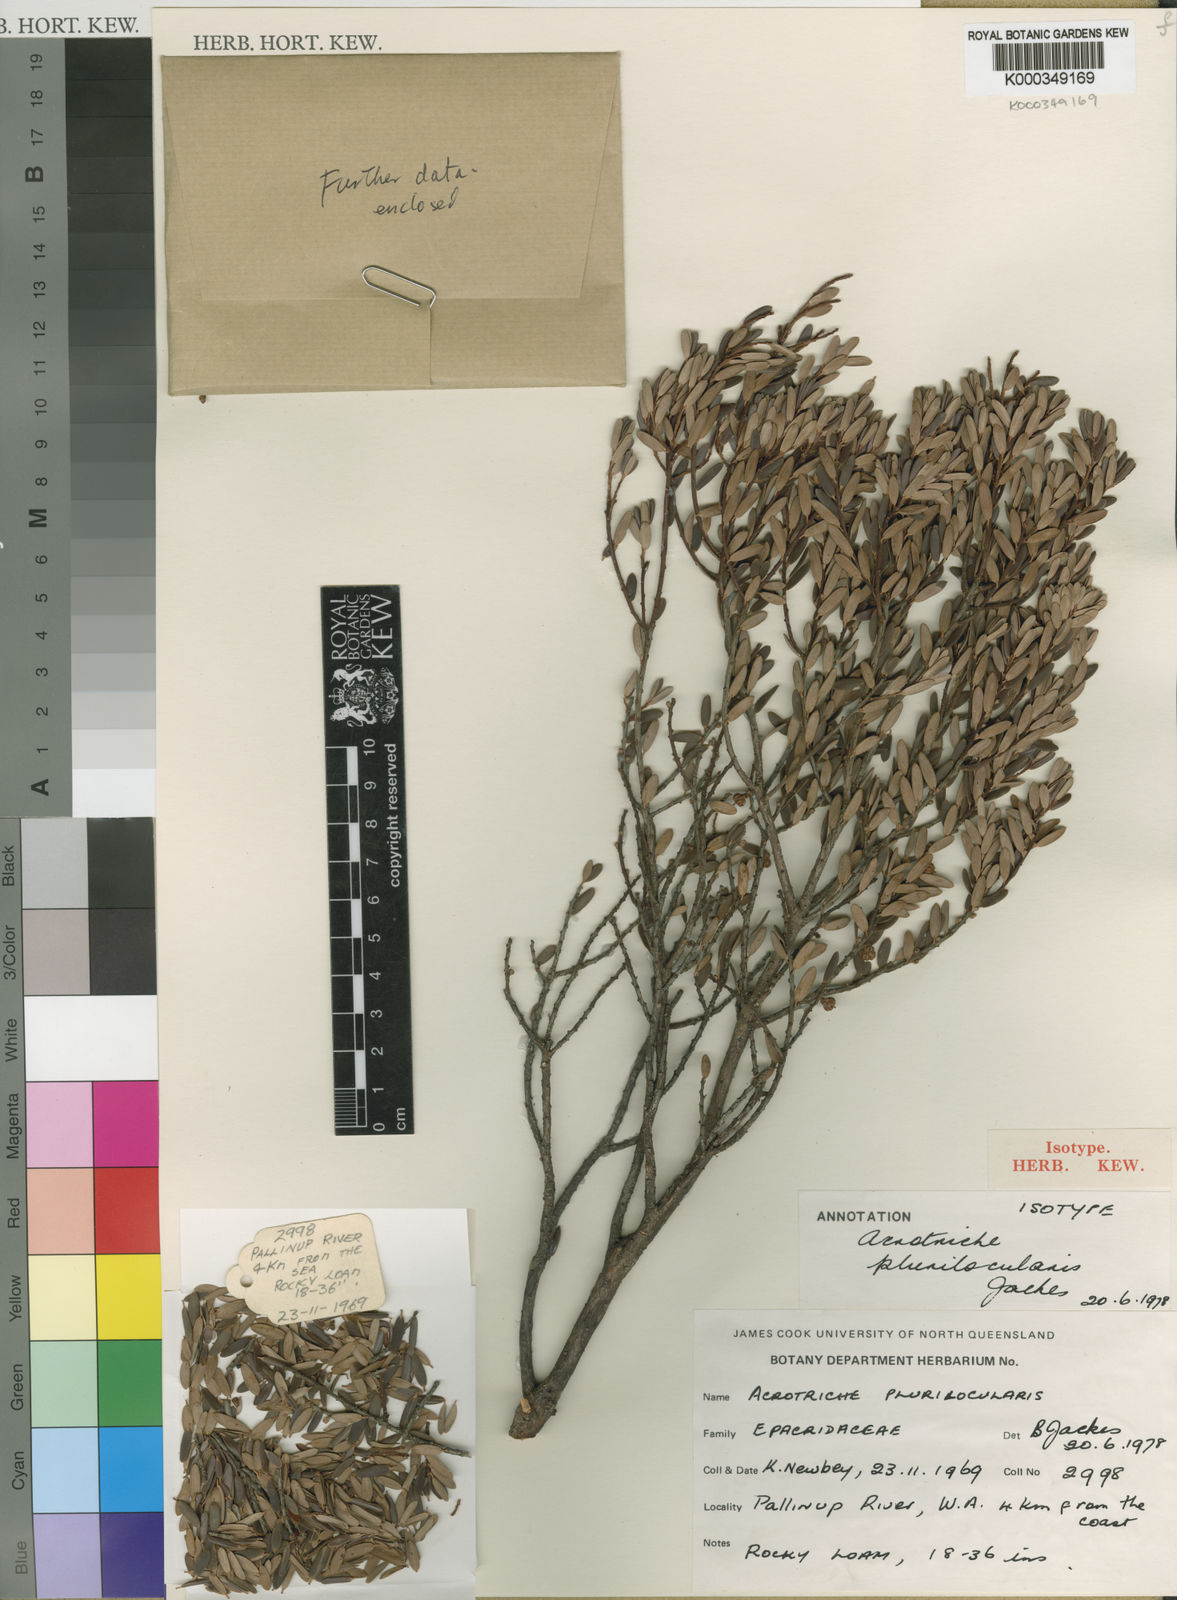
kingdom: Plantae
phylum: Tracheophyta
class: Magnoliopsida
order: Ericales
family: Ericaceae
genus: Acrotriche
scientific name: Acrotriche parviflora
